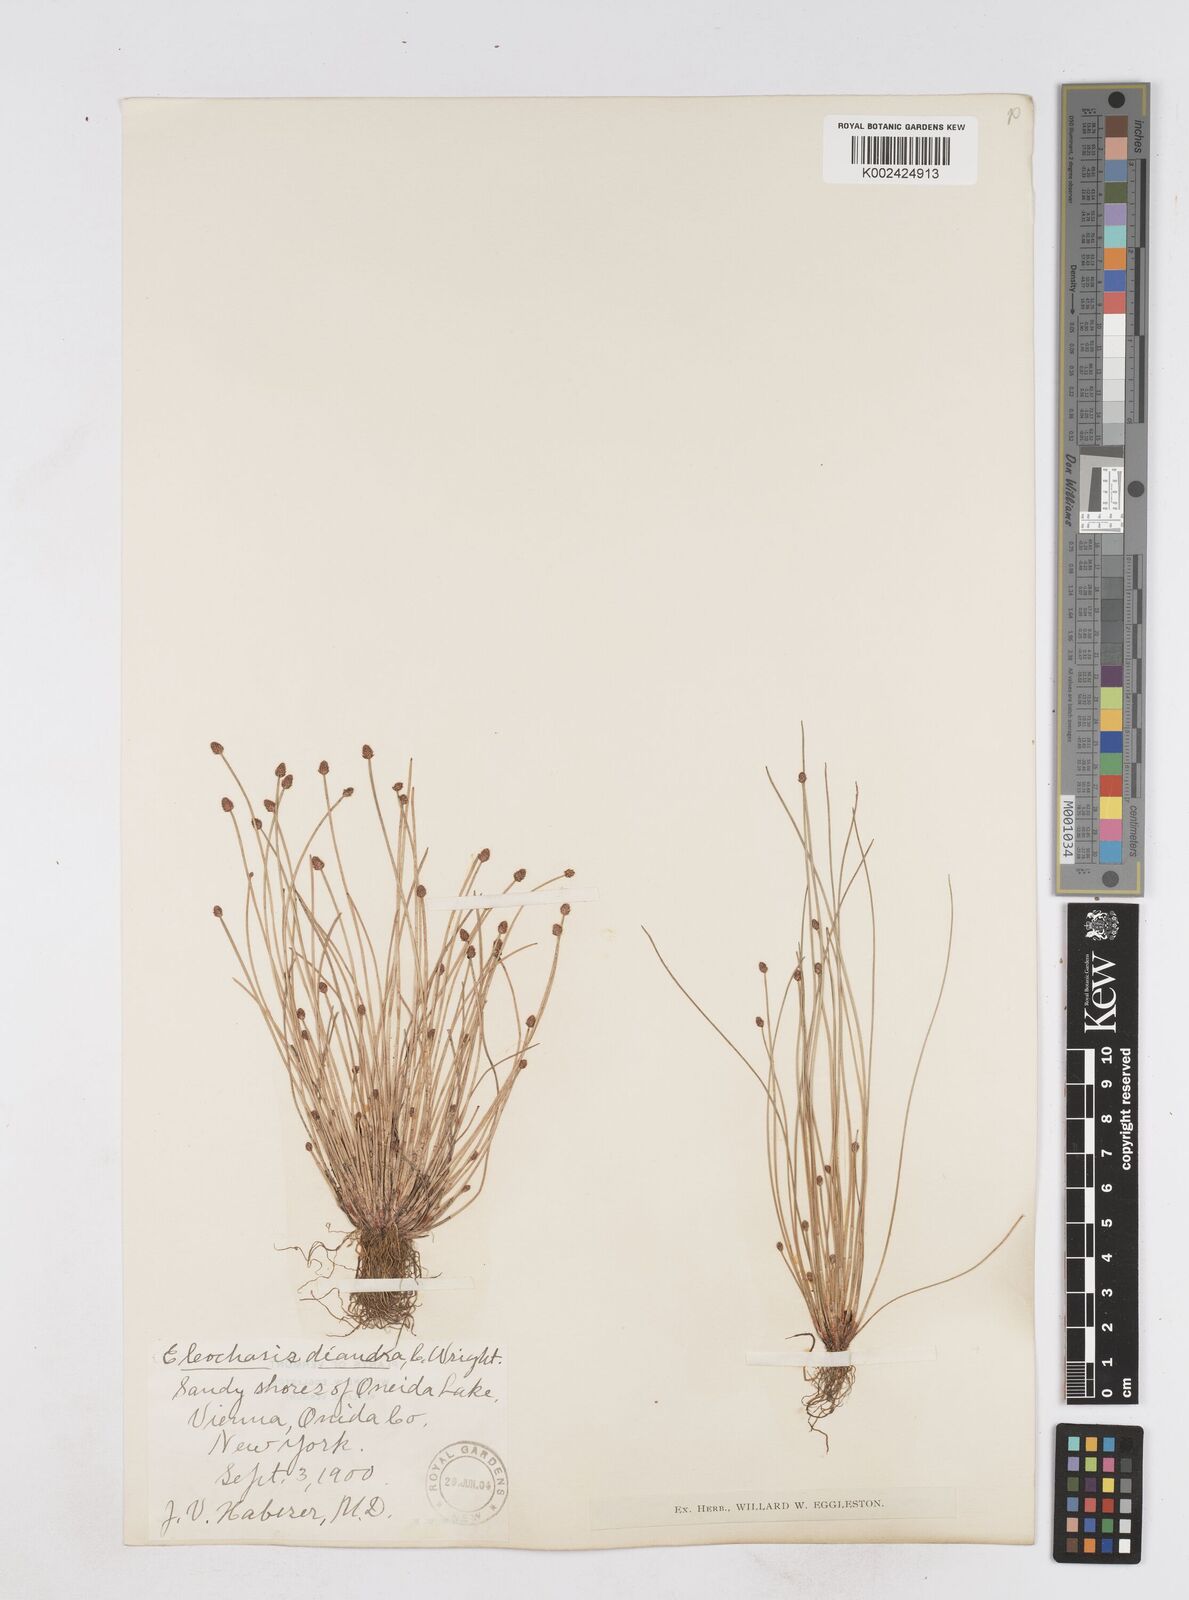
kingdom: Plantae
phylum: Tracheophyta
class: Liliopsida
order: Poales
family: Cyperaceae
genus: Eleocharis
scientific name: Eleocharis ovata
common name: Oval spike-rush
